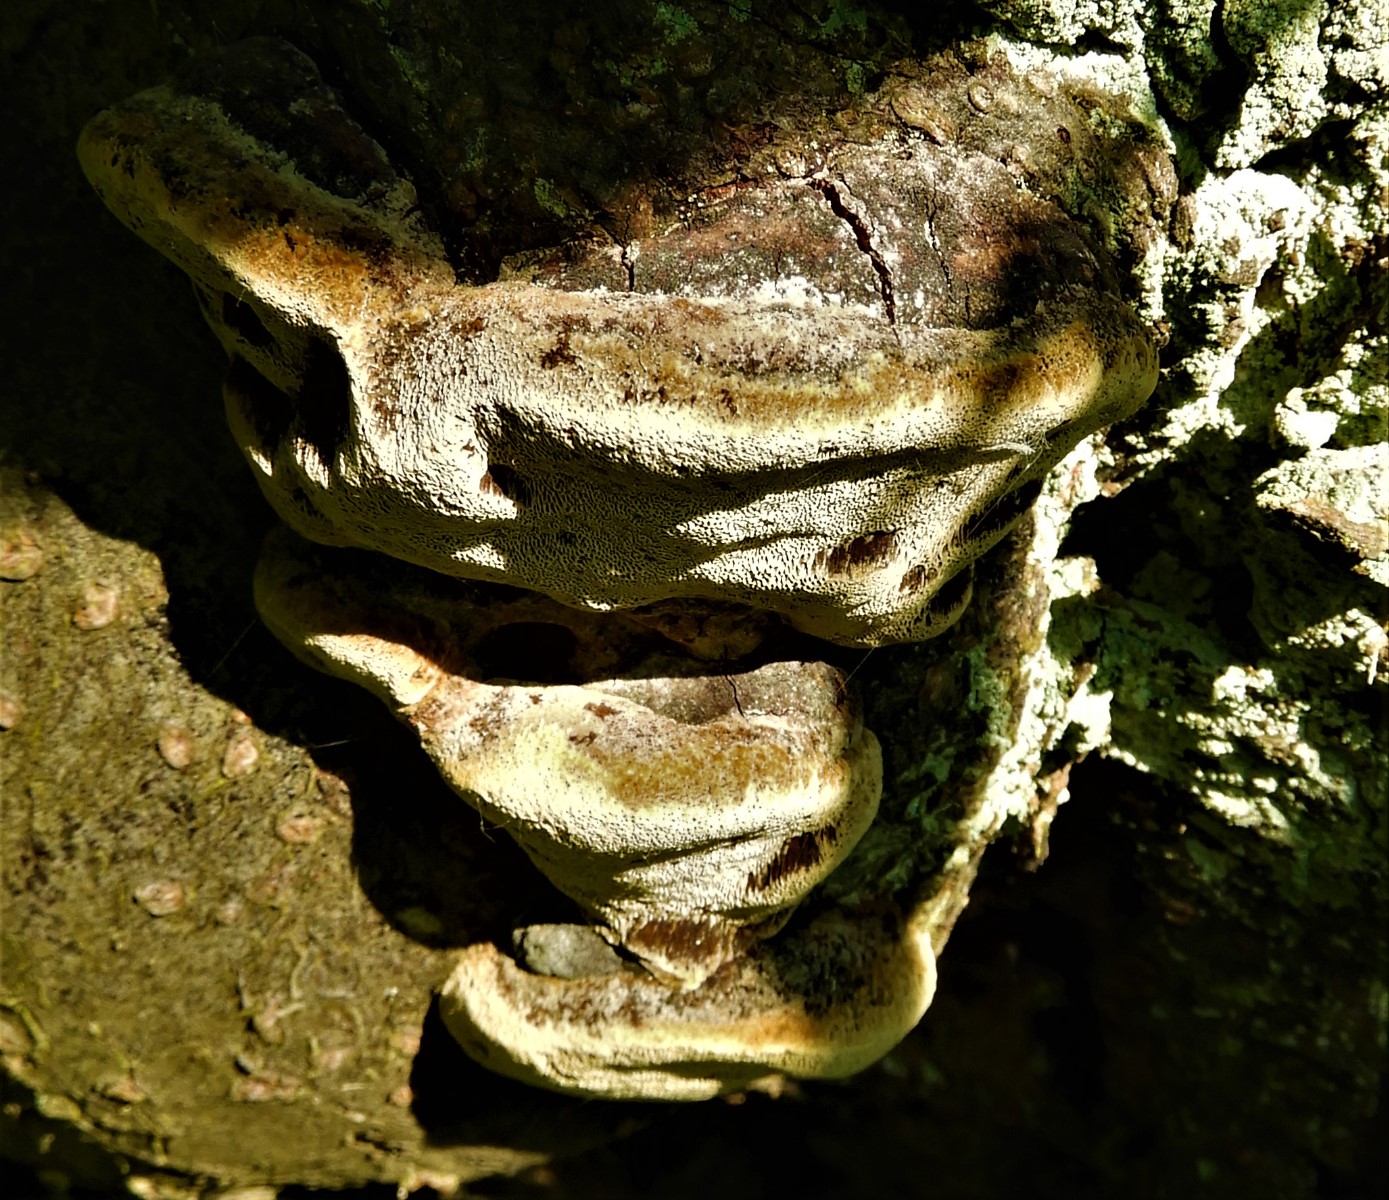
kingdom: Fungi
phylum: Basidiomycota
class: Agaricomycetes
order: Hymenochaetales
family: Hymenochaetaceae
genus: Phellinus
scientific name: Phellinus pomaceus
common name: blomme-ildporesvamp
